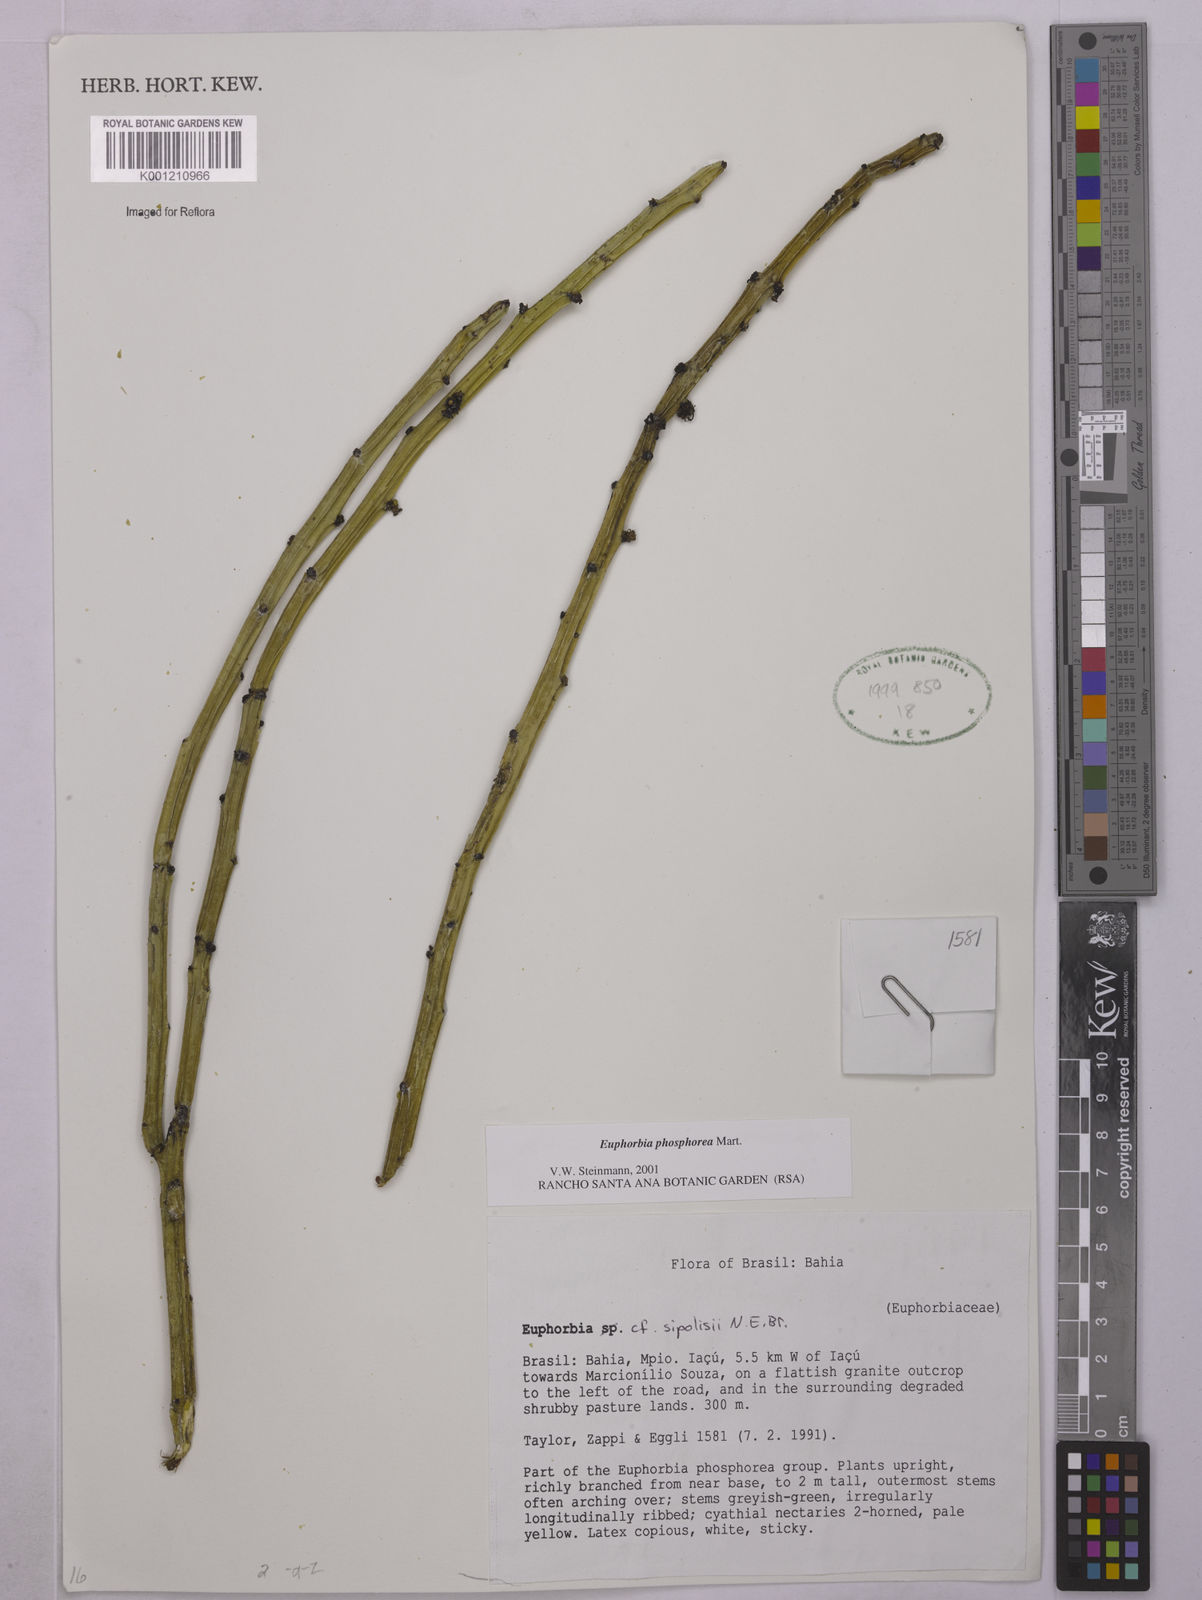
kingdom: Plantae
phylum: Tracheophyta
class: Magnoliopsida
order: Malpighiales
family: Euphorbiaceae
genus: Euphorbia
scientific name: Euphorbia phosphorea
